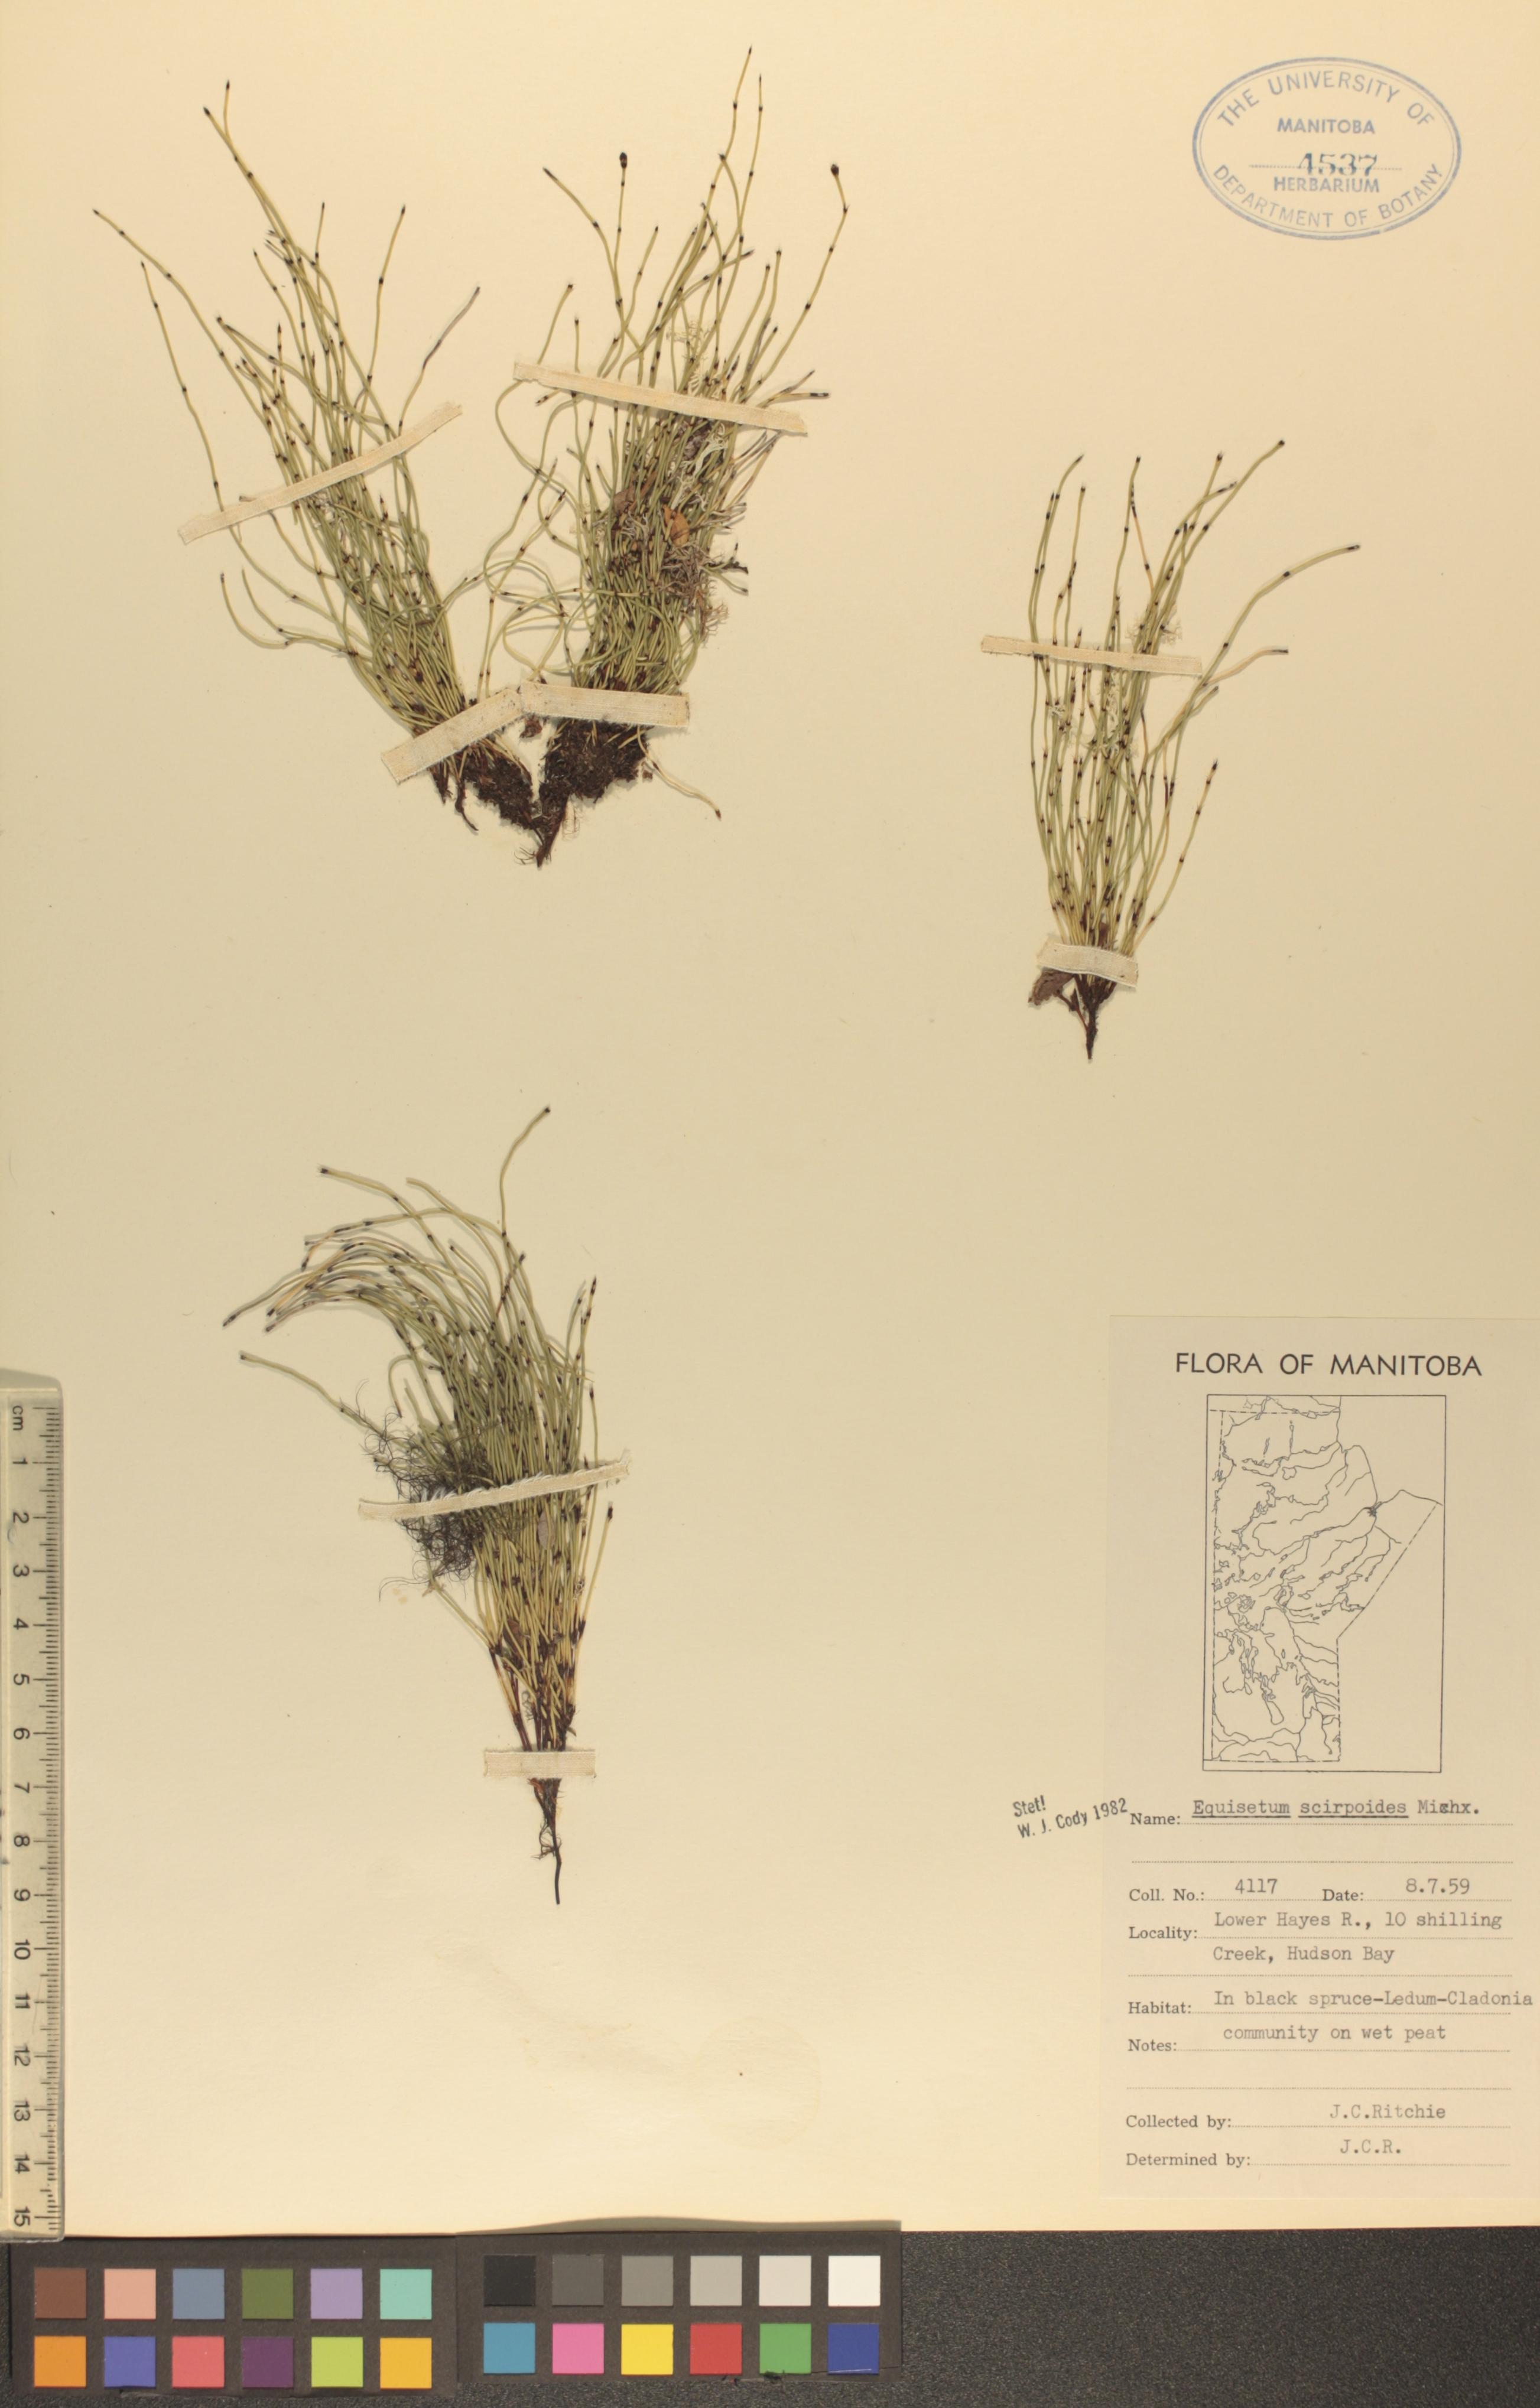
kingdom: Plantae
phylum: Tracheophyta
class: Polypodiopsida
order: Equisetales
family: Equisetaceae
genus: Equisetum
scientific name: Equisetum scirpoides
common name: Delicate horsetail
